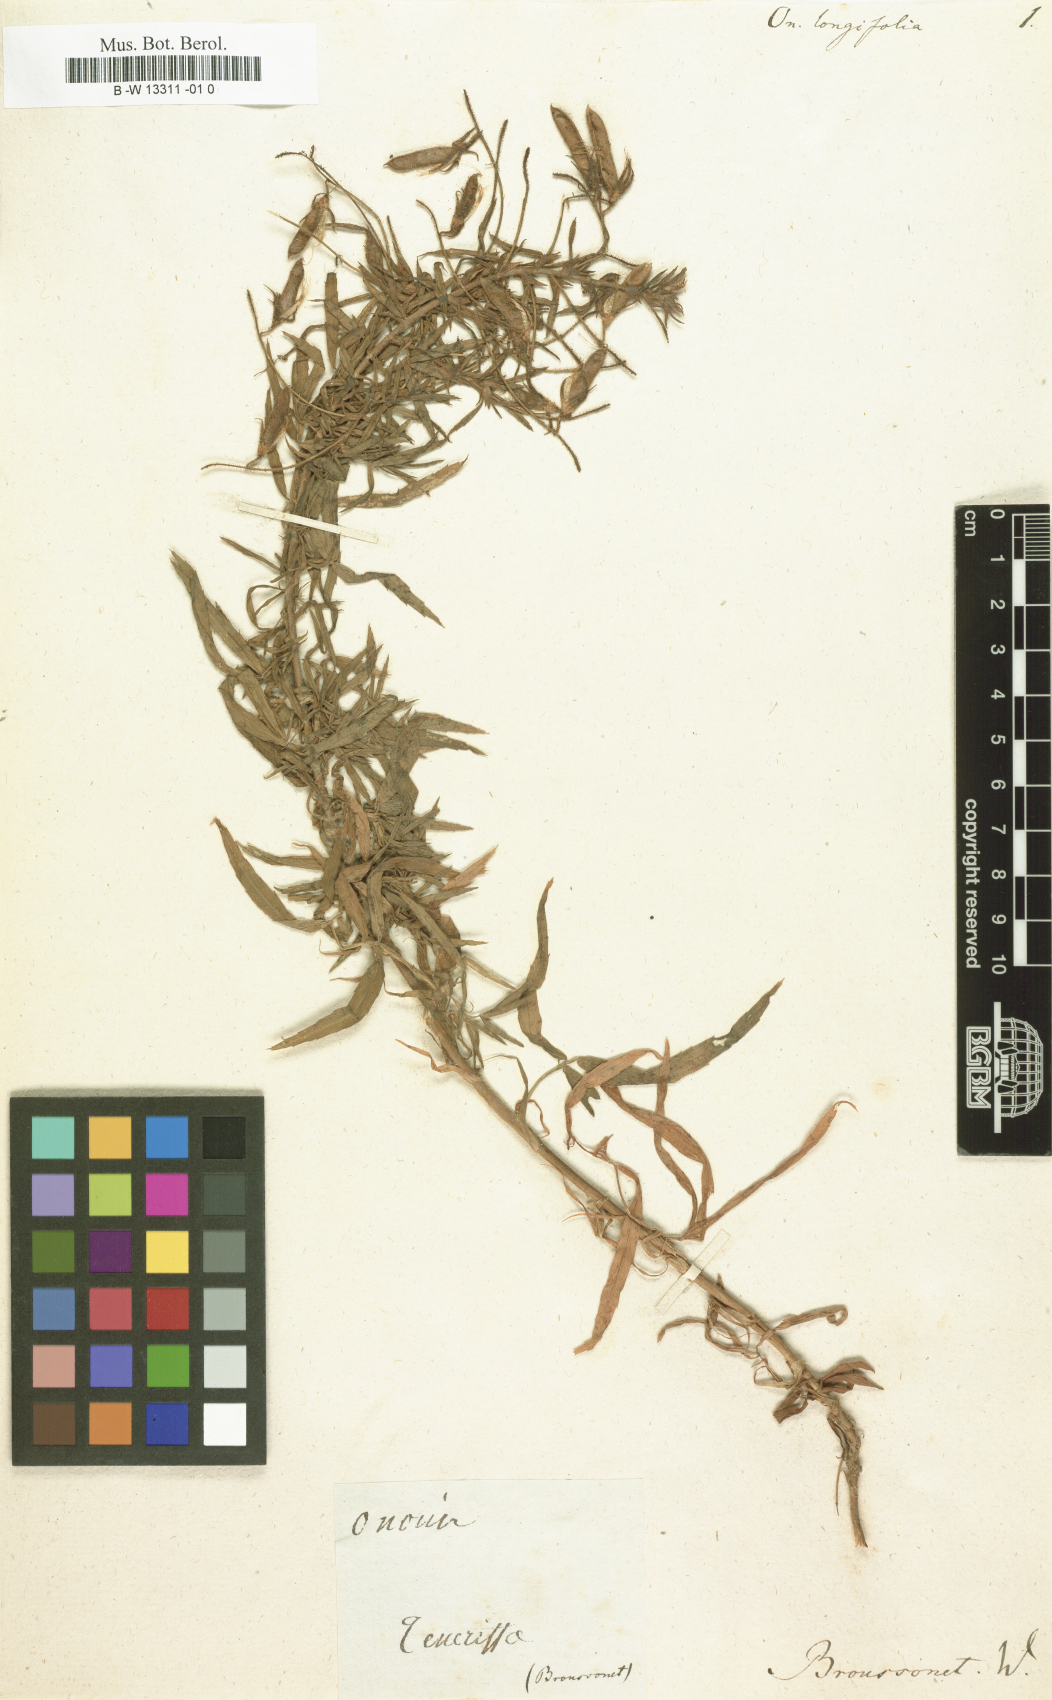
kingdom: Plantae
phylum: Tracheophyta
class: Magnoliopsida
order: Fabales
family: Fabaceae
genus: Ononis
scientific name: Ononis angustissima
